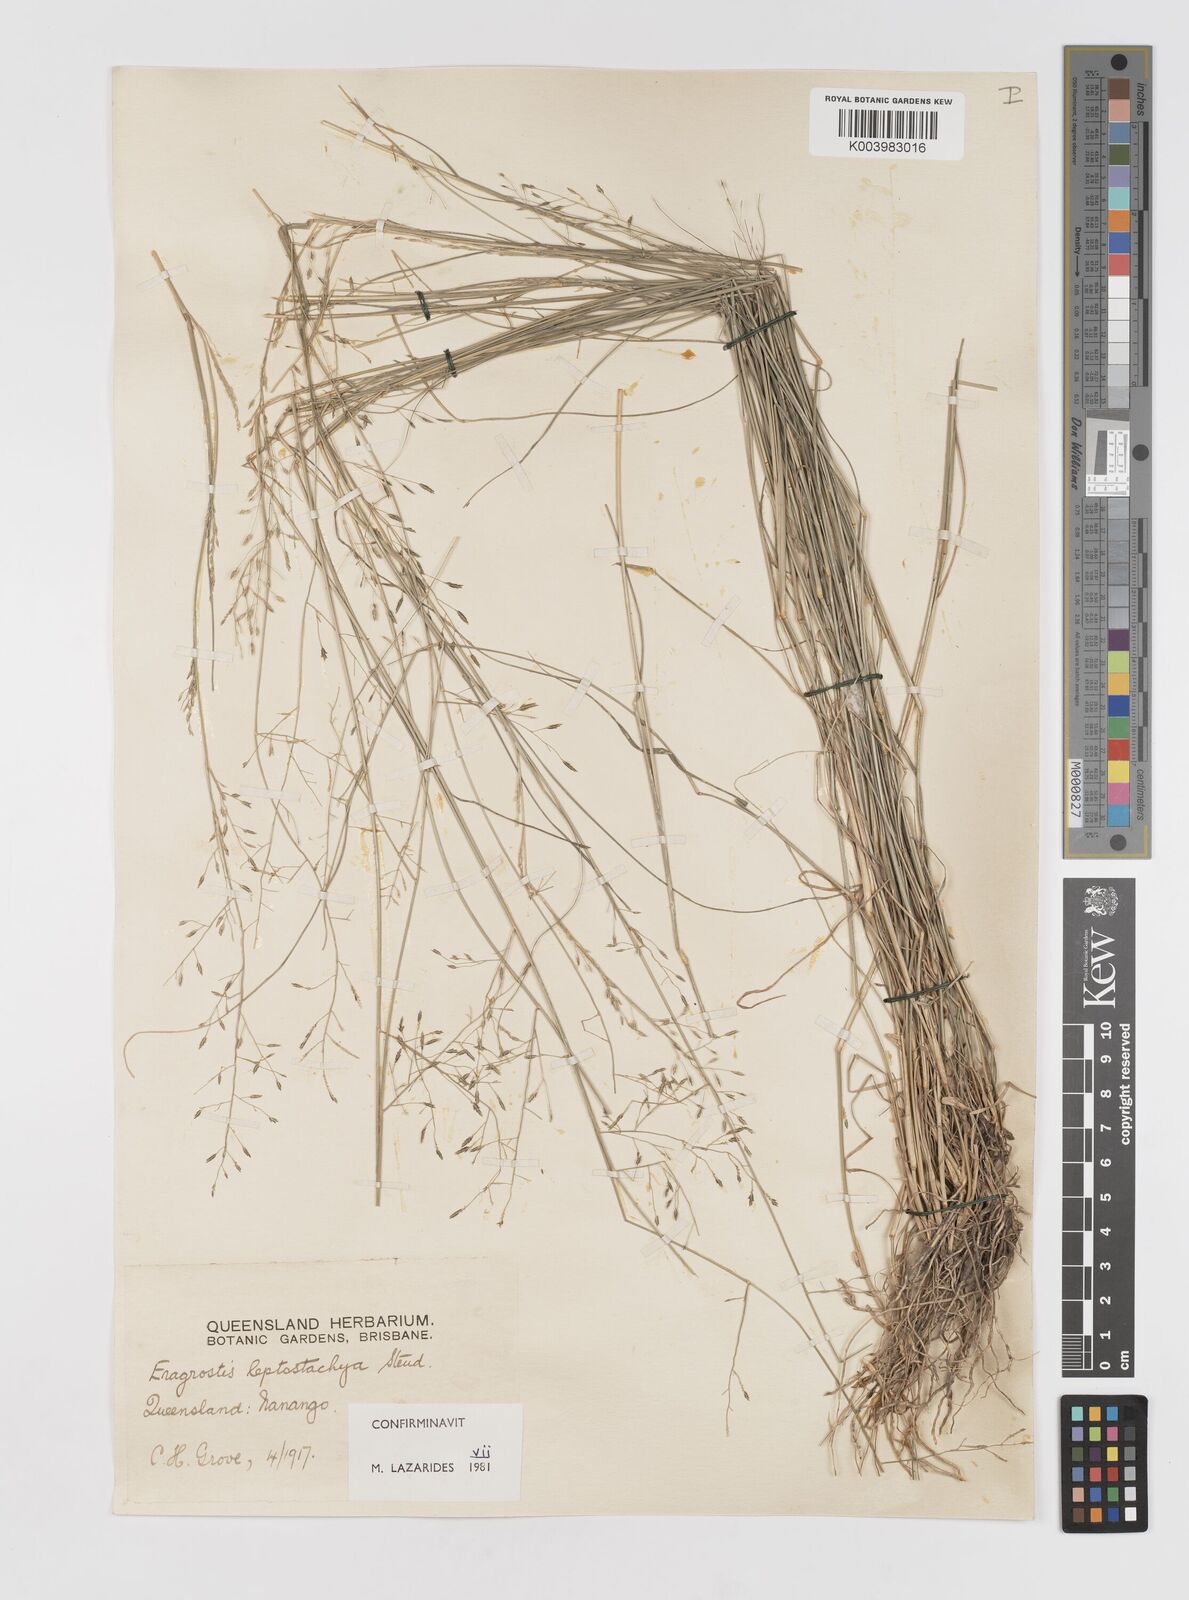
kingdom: Plantae
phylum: Tracheophyta
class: Liliopsida
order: Poales
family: Poaceae
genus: Eragrostis
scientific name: Eragrostis leptostachya
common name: Australian lovegrass
